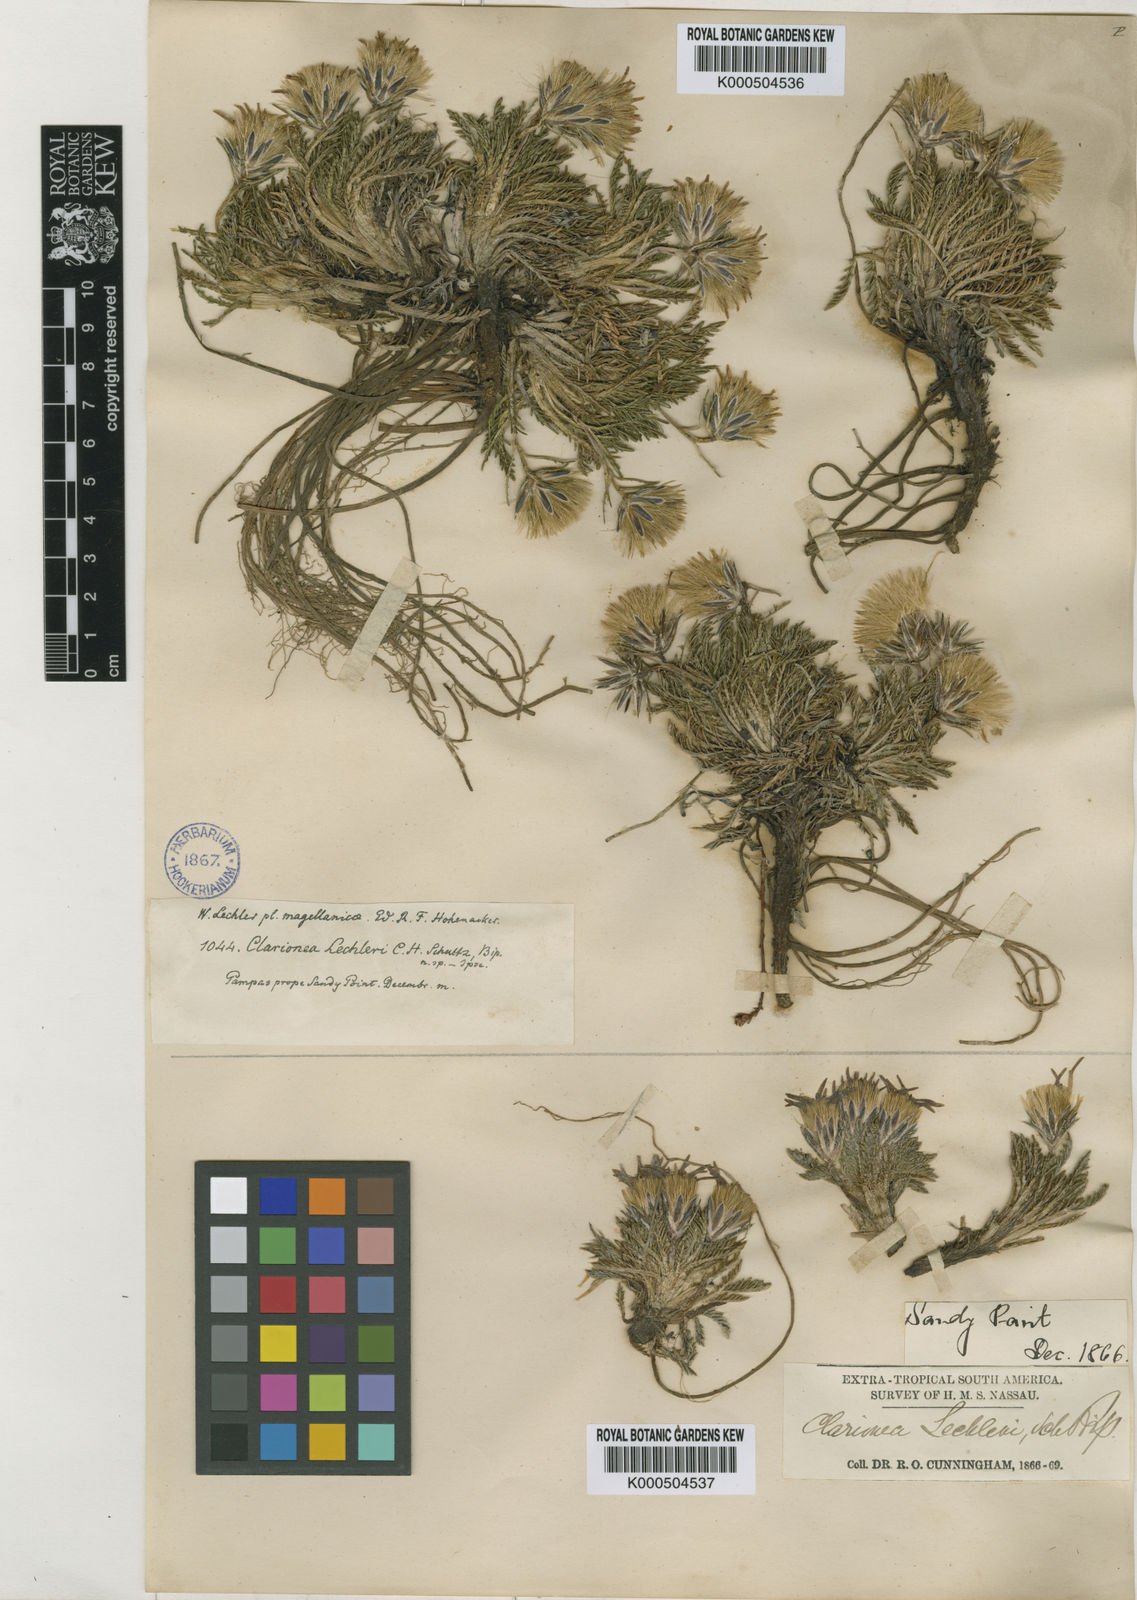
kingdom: Plantae
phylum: Tracheophyta
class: Magnoliopsida
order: Asterales
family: Asteraceae
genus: Perezia
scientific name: Perezia pilifera
